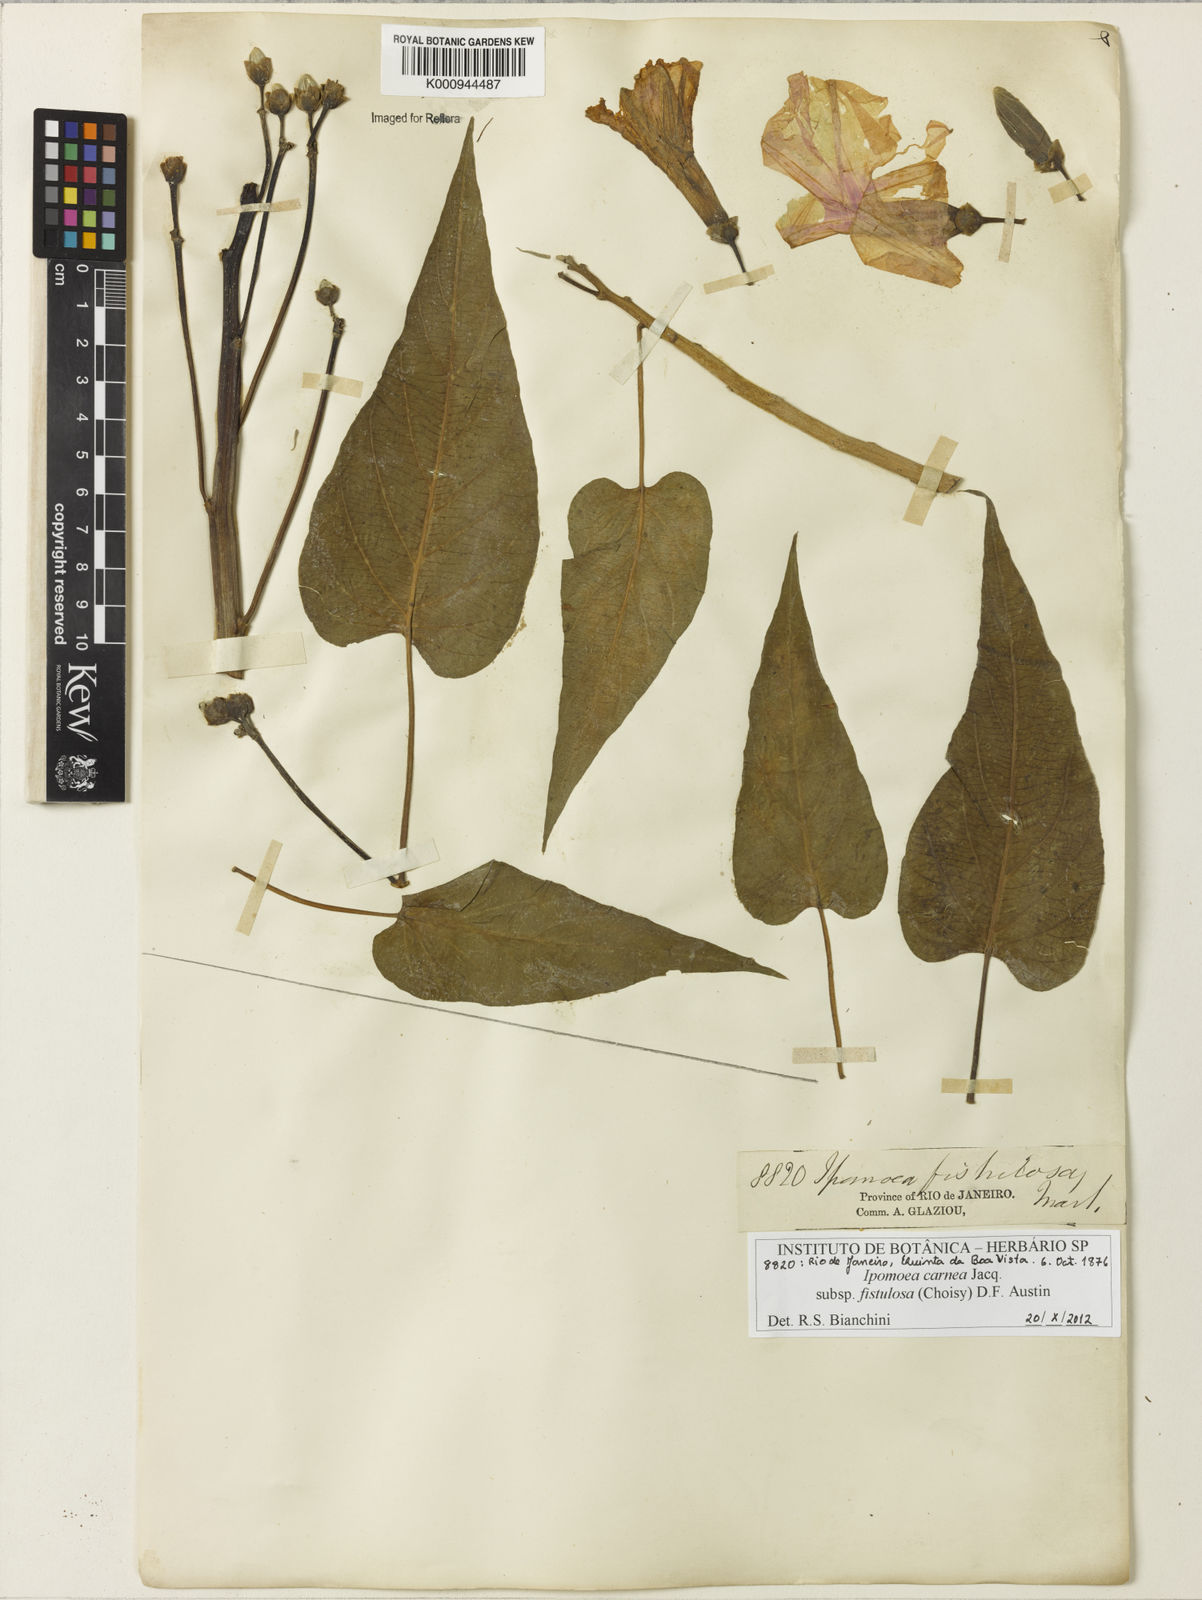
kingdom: Plantae
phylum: Tracheophyta
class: Magnoliopsida
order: Solanales
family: Convolvulaceae
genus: Ipomoea
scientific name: Ipomoea
